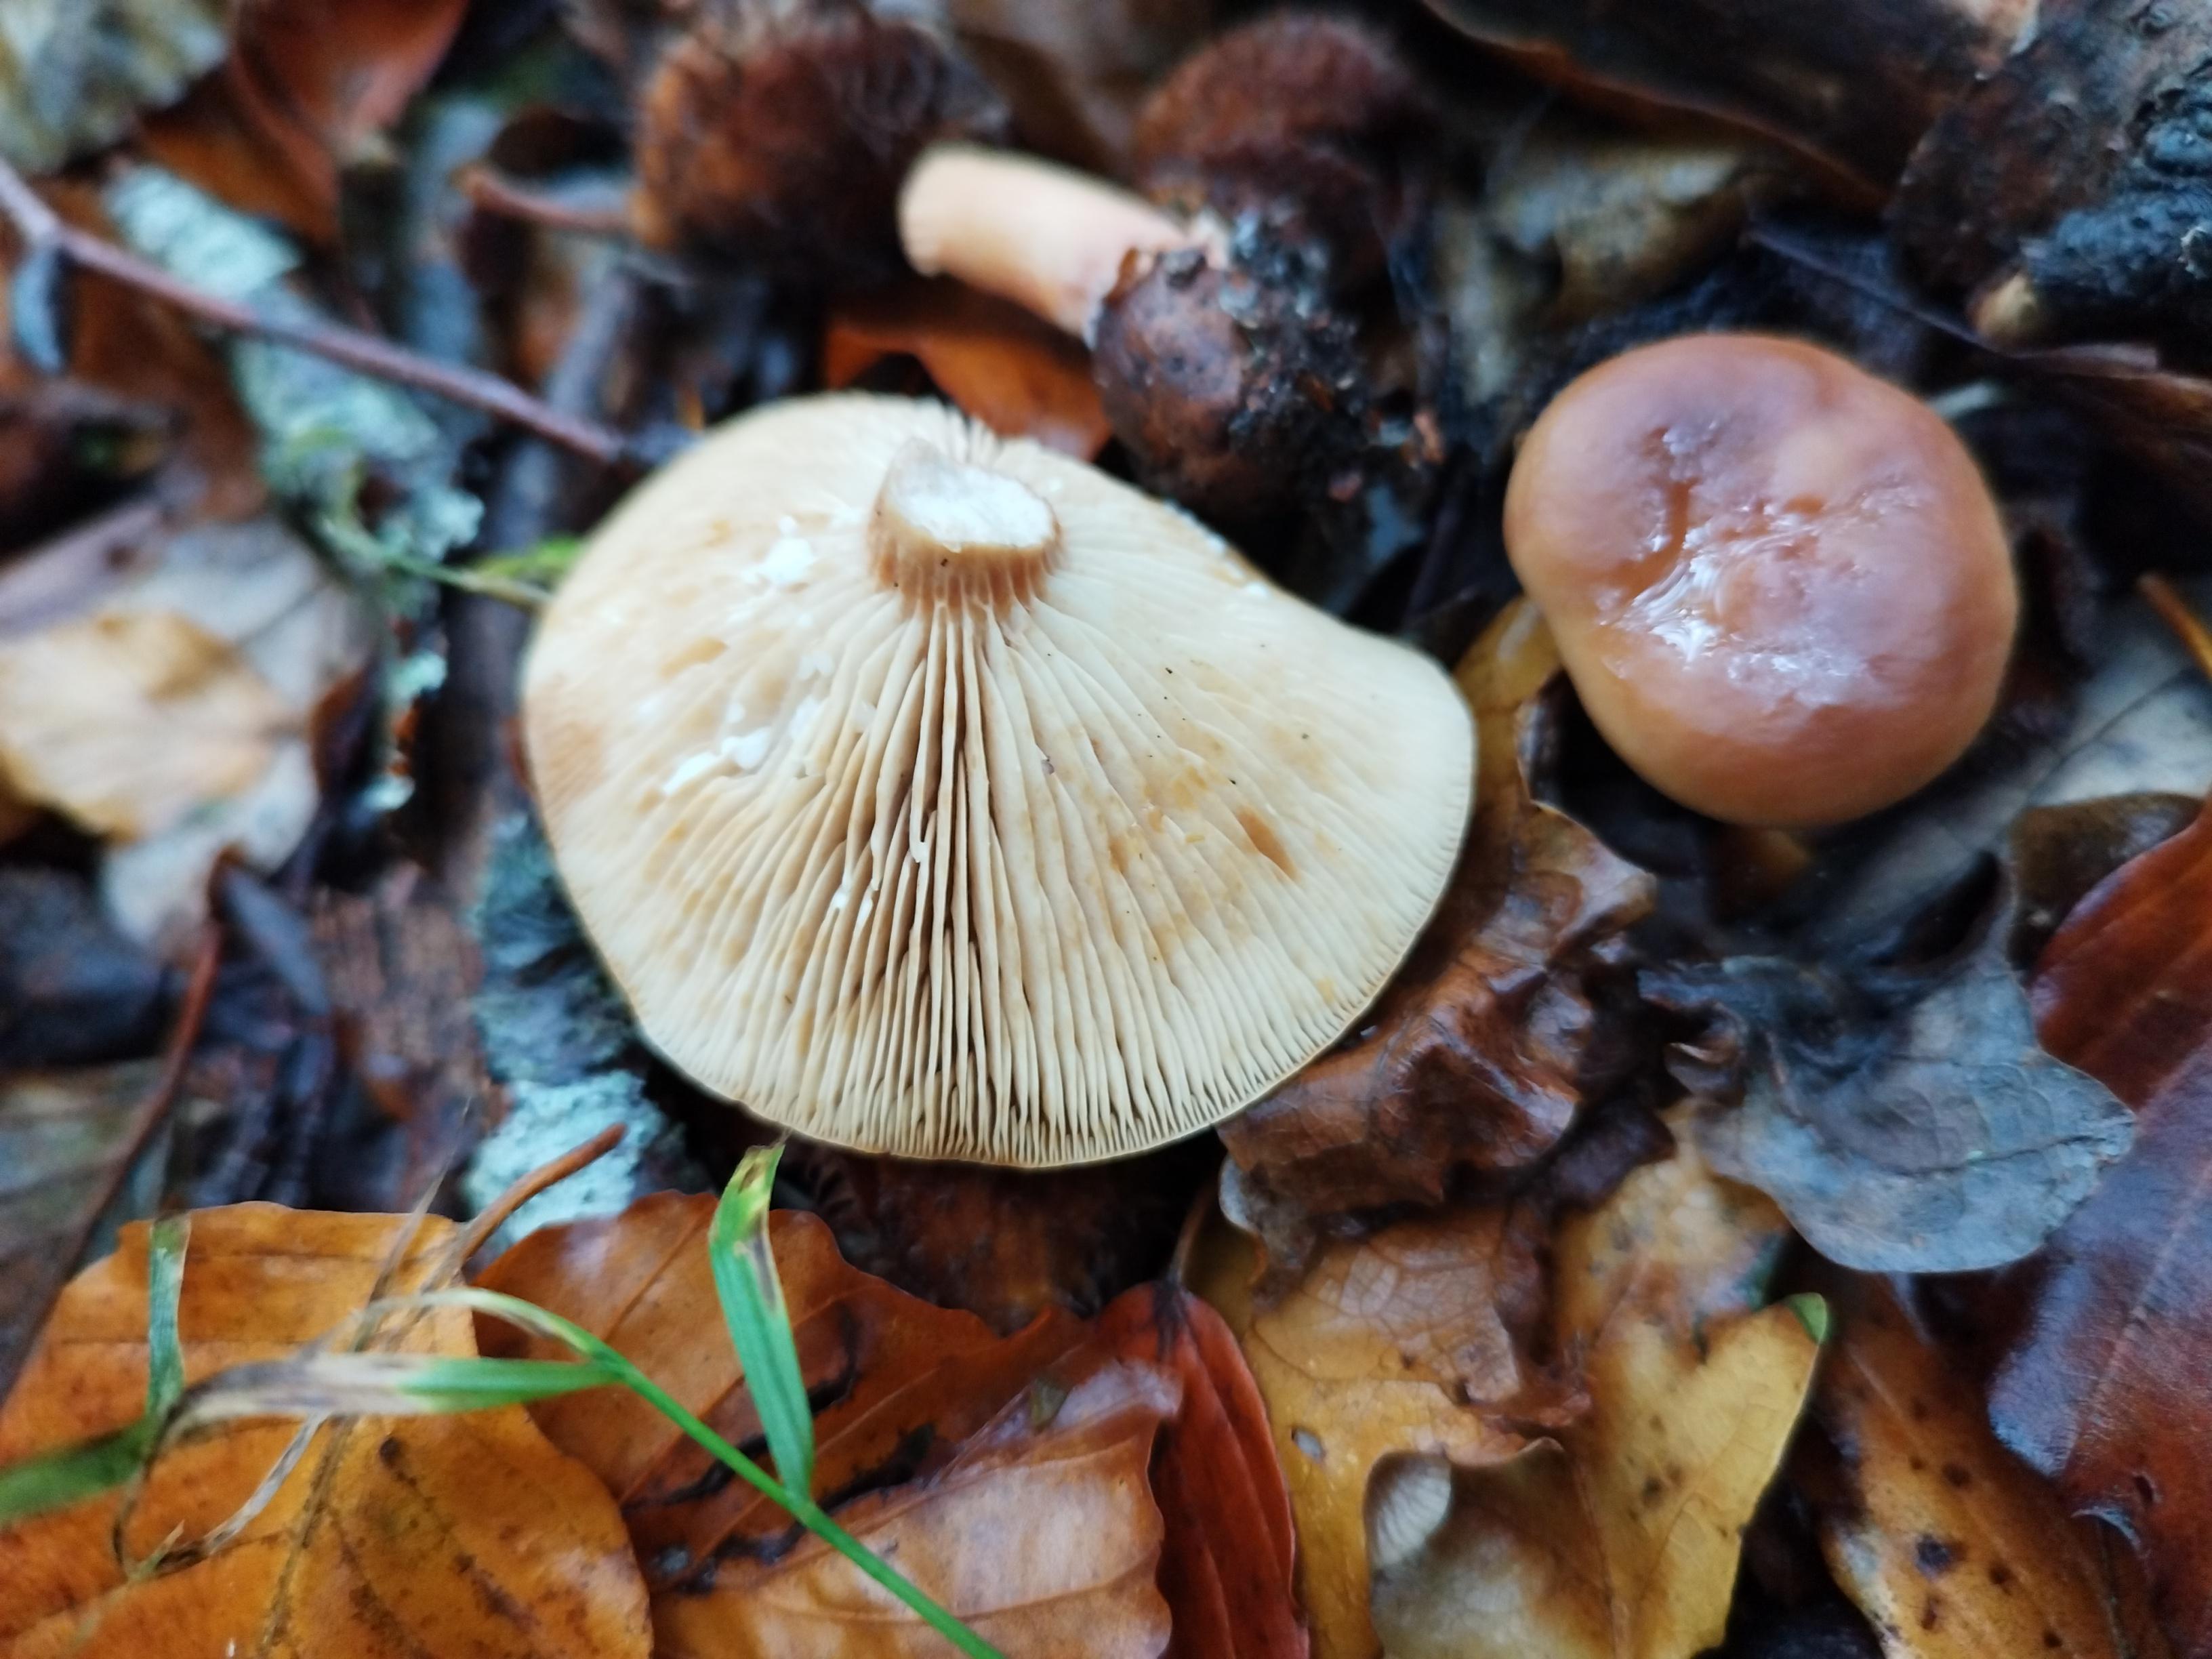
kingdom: Fungi
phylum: Basidiomycota
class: Agaricomycetes
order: Russulales
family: Russulaceae
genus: Lactarius
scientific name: Lactarius subdulcis
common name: sødlig mælkehat
